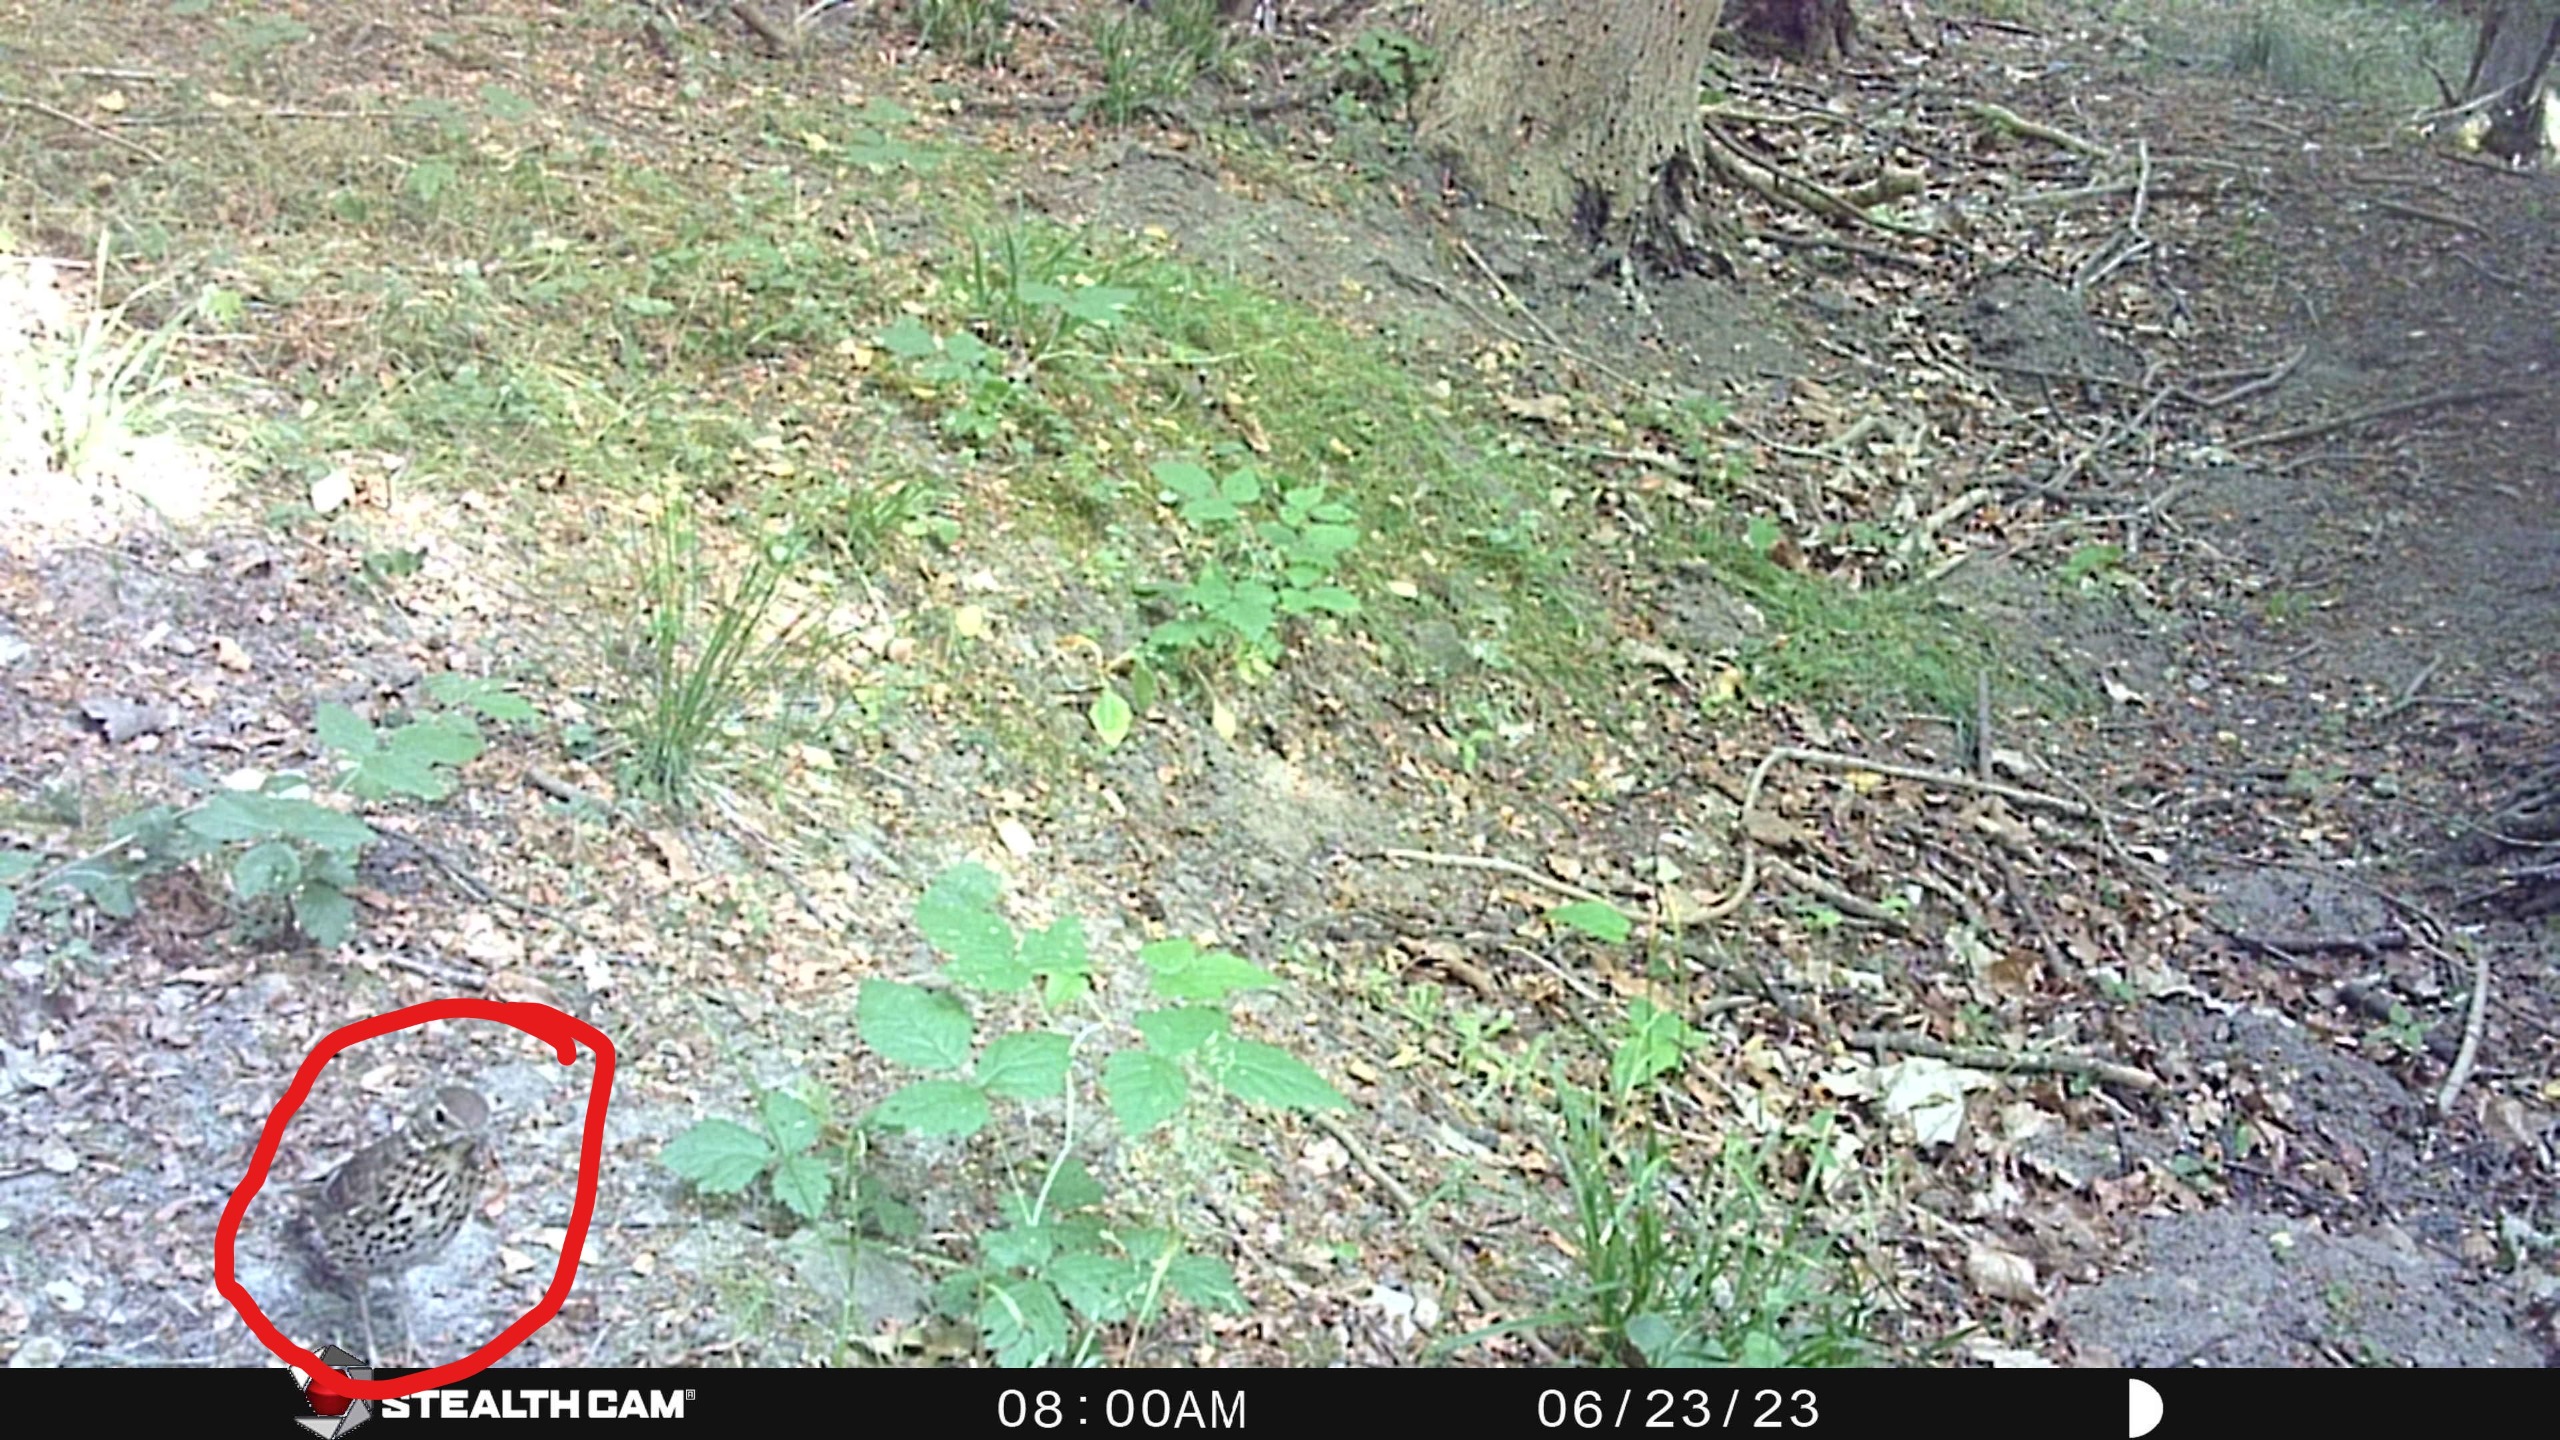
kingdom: Animalia
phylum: Chordata
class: Aves
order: Passeriformes
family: Turdidae
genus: Turdus
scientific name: Turdus philomelos
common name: Sangdrossel
